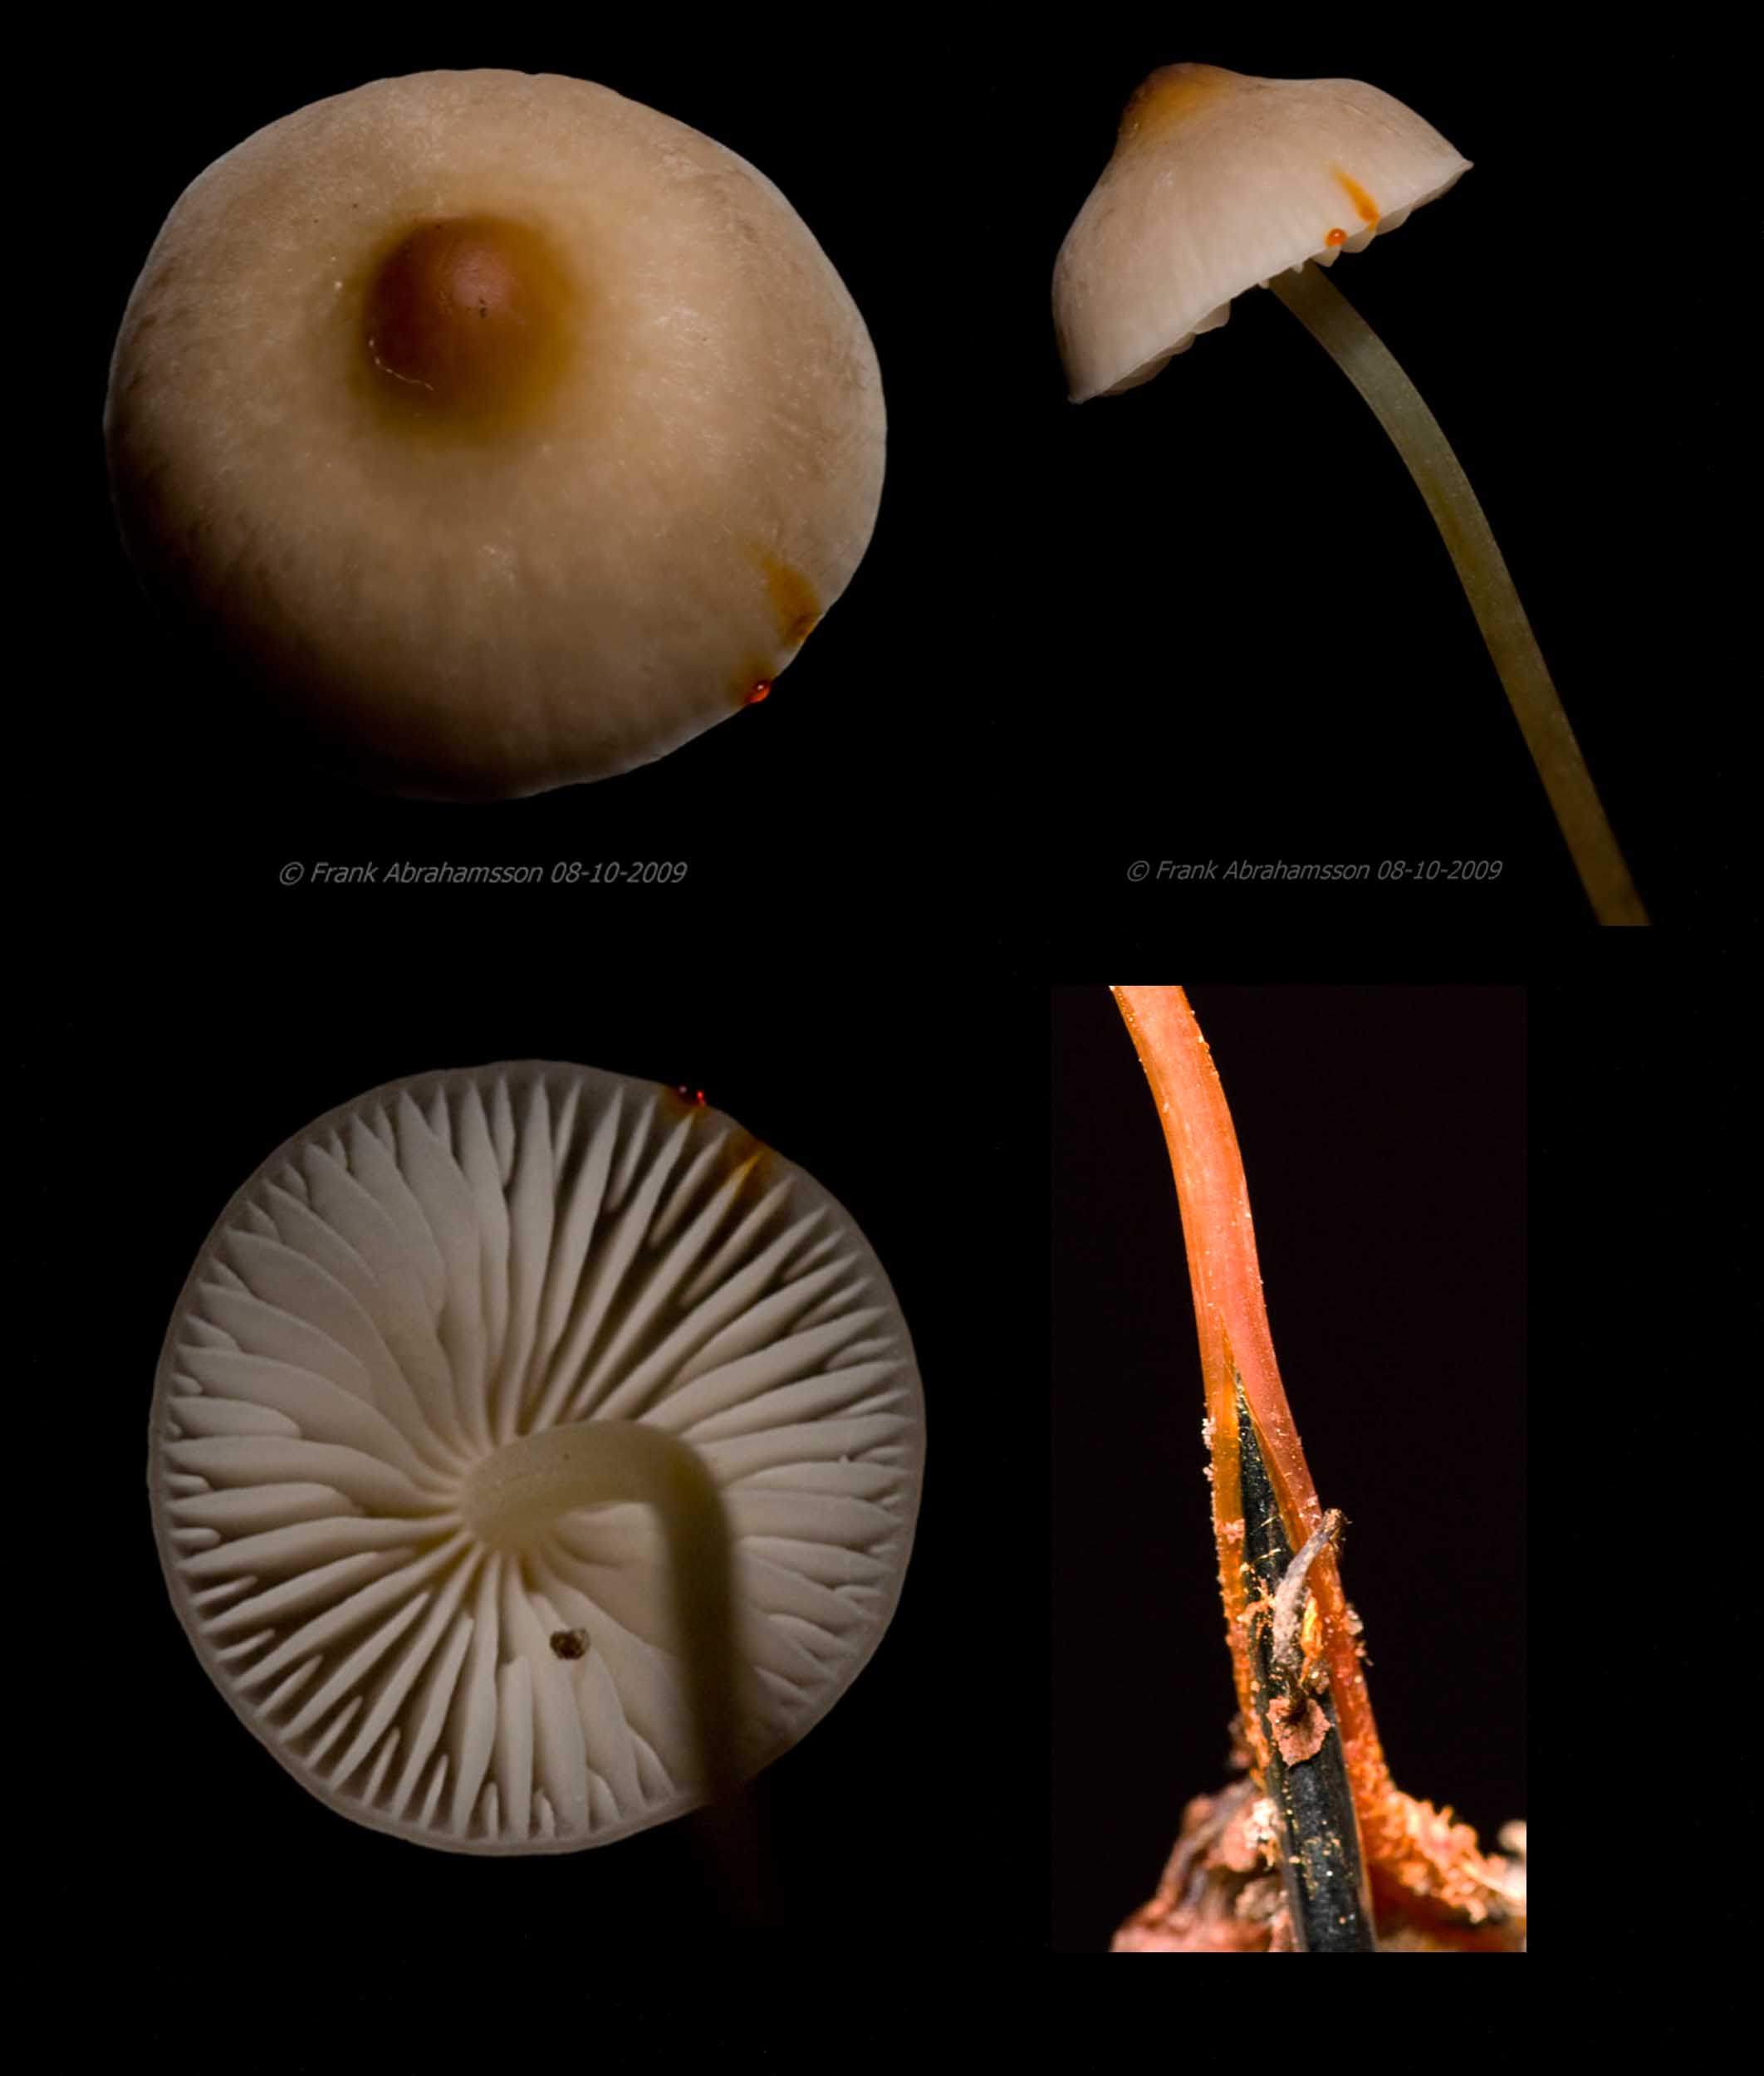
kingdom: Fungi
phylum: Basidiomycota
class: Agaricomycetes
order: Agaricales
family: Mycenaceae
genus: Mycena
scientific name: Mycena crocata
